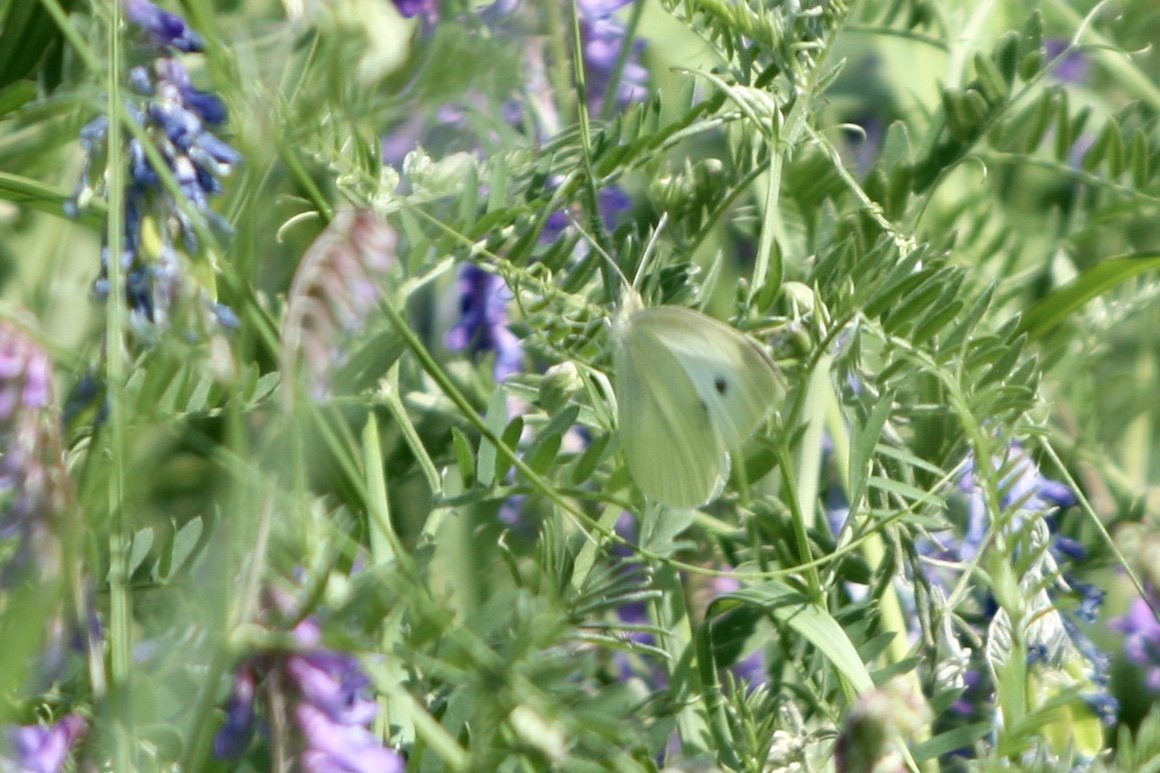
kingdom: Animalia
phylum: Arthropoda
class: Insecta
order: Lepidoptera
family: Pieridae
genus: Pieris
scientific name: Pieris rapae
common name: Cabbage White
